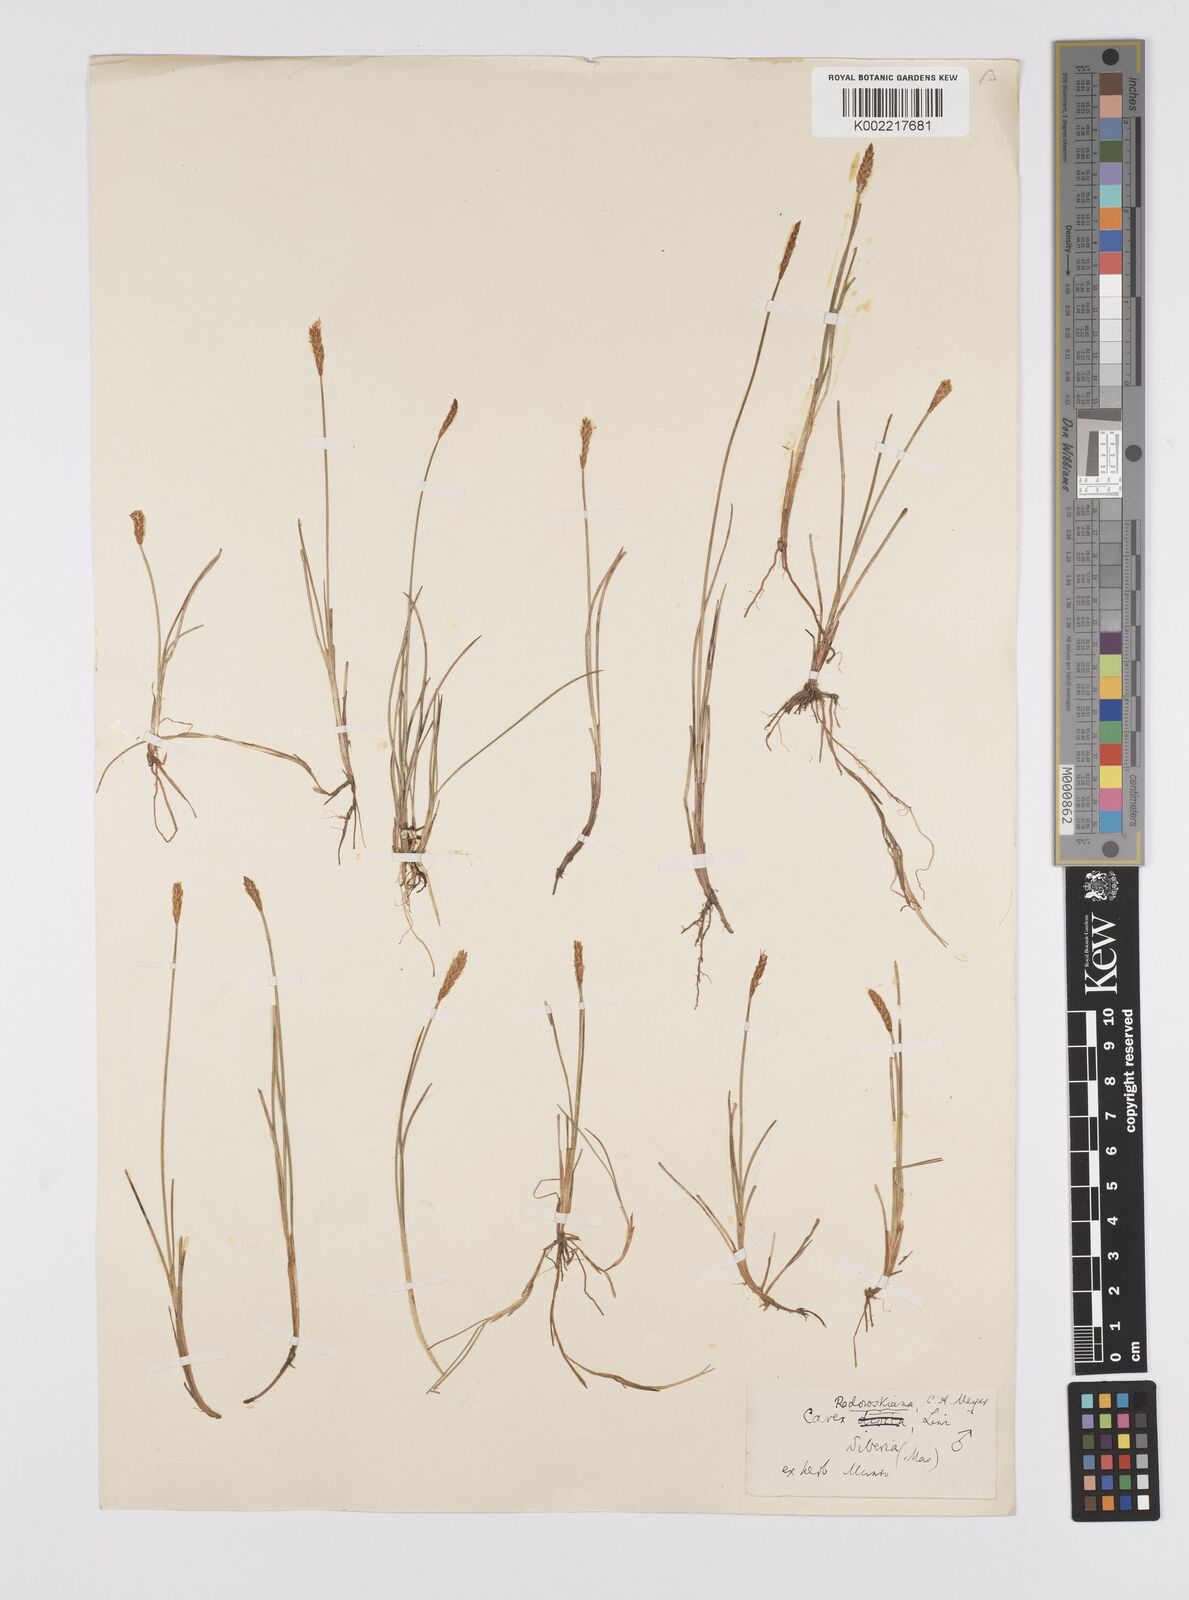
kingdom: Plantae
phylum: Tracheophyta
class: Liliopsida
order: Poales
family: Cyperaceae
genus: Carex
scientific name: Carex parallela
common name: Parallel sedge
